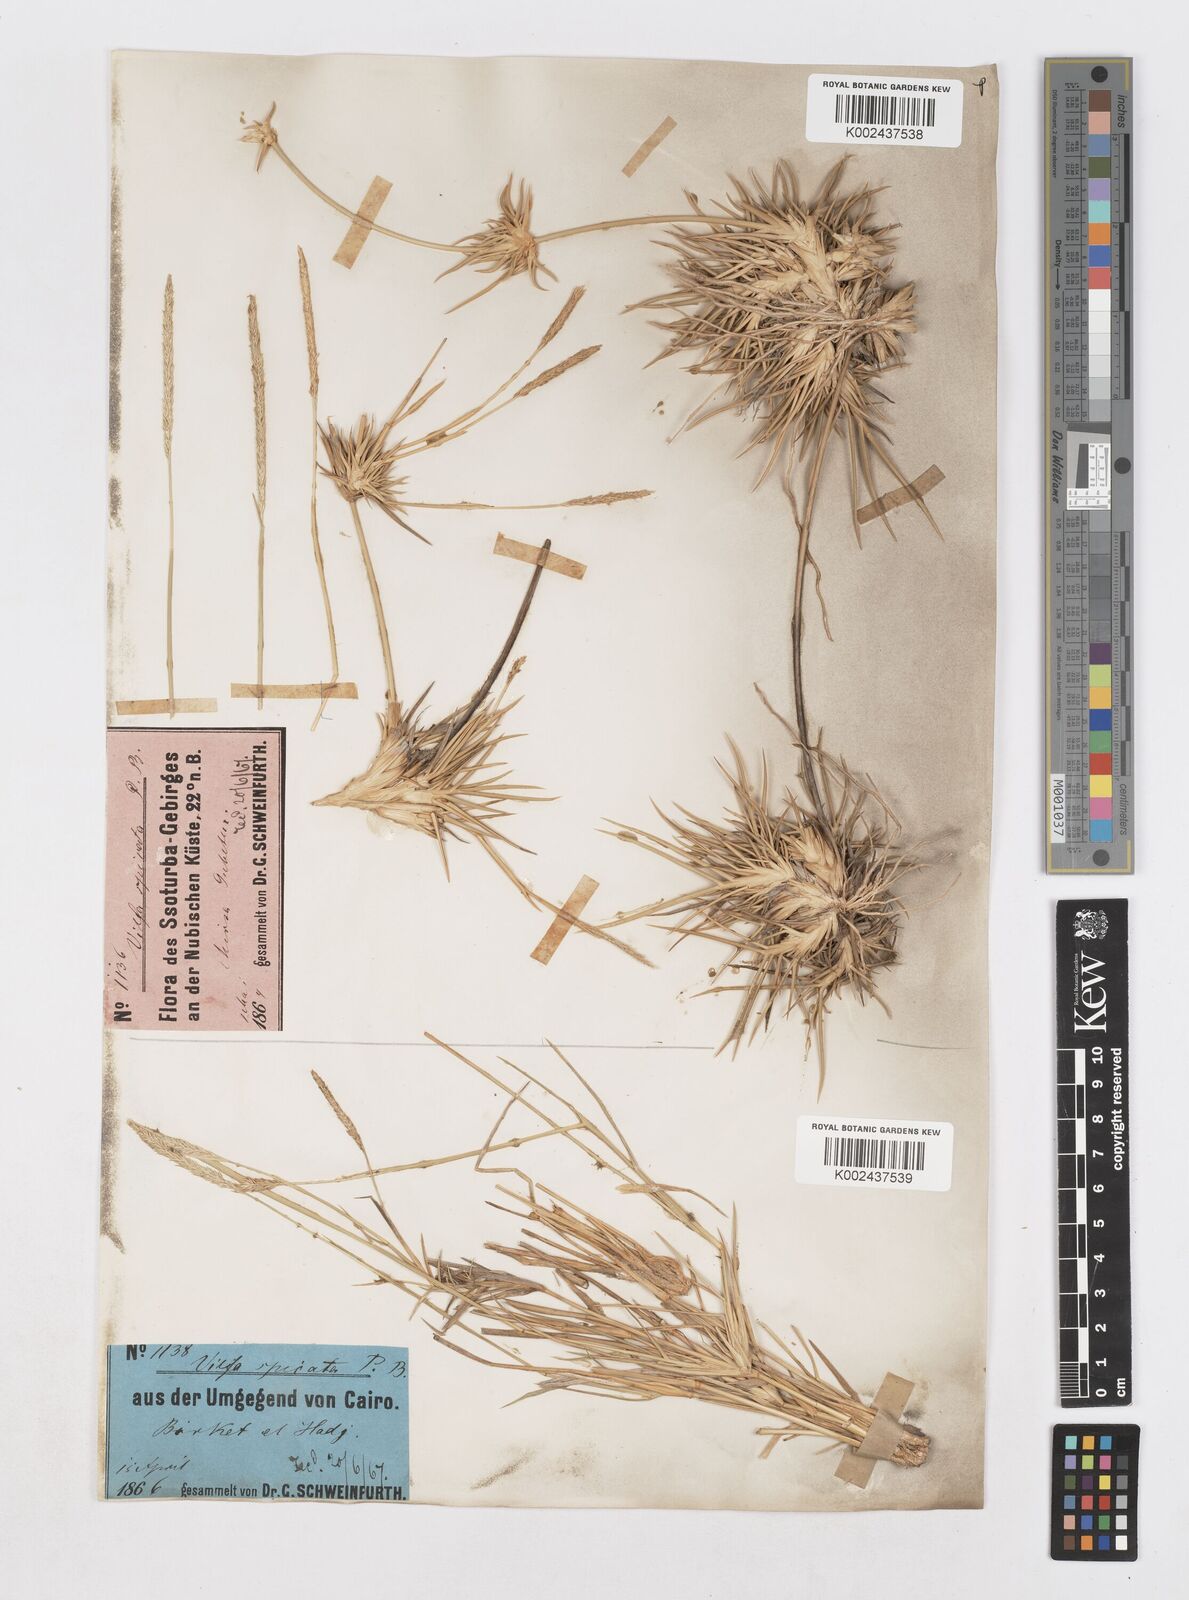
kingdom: Plantae
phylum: Tracheophyta
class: Liliopsida
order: Poales
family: Poaceae
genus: Sporobolus
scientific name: Sporobolus spicatus
